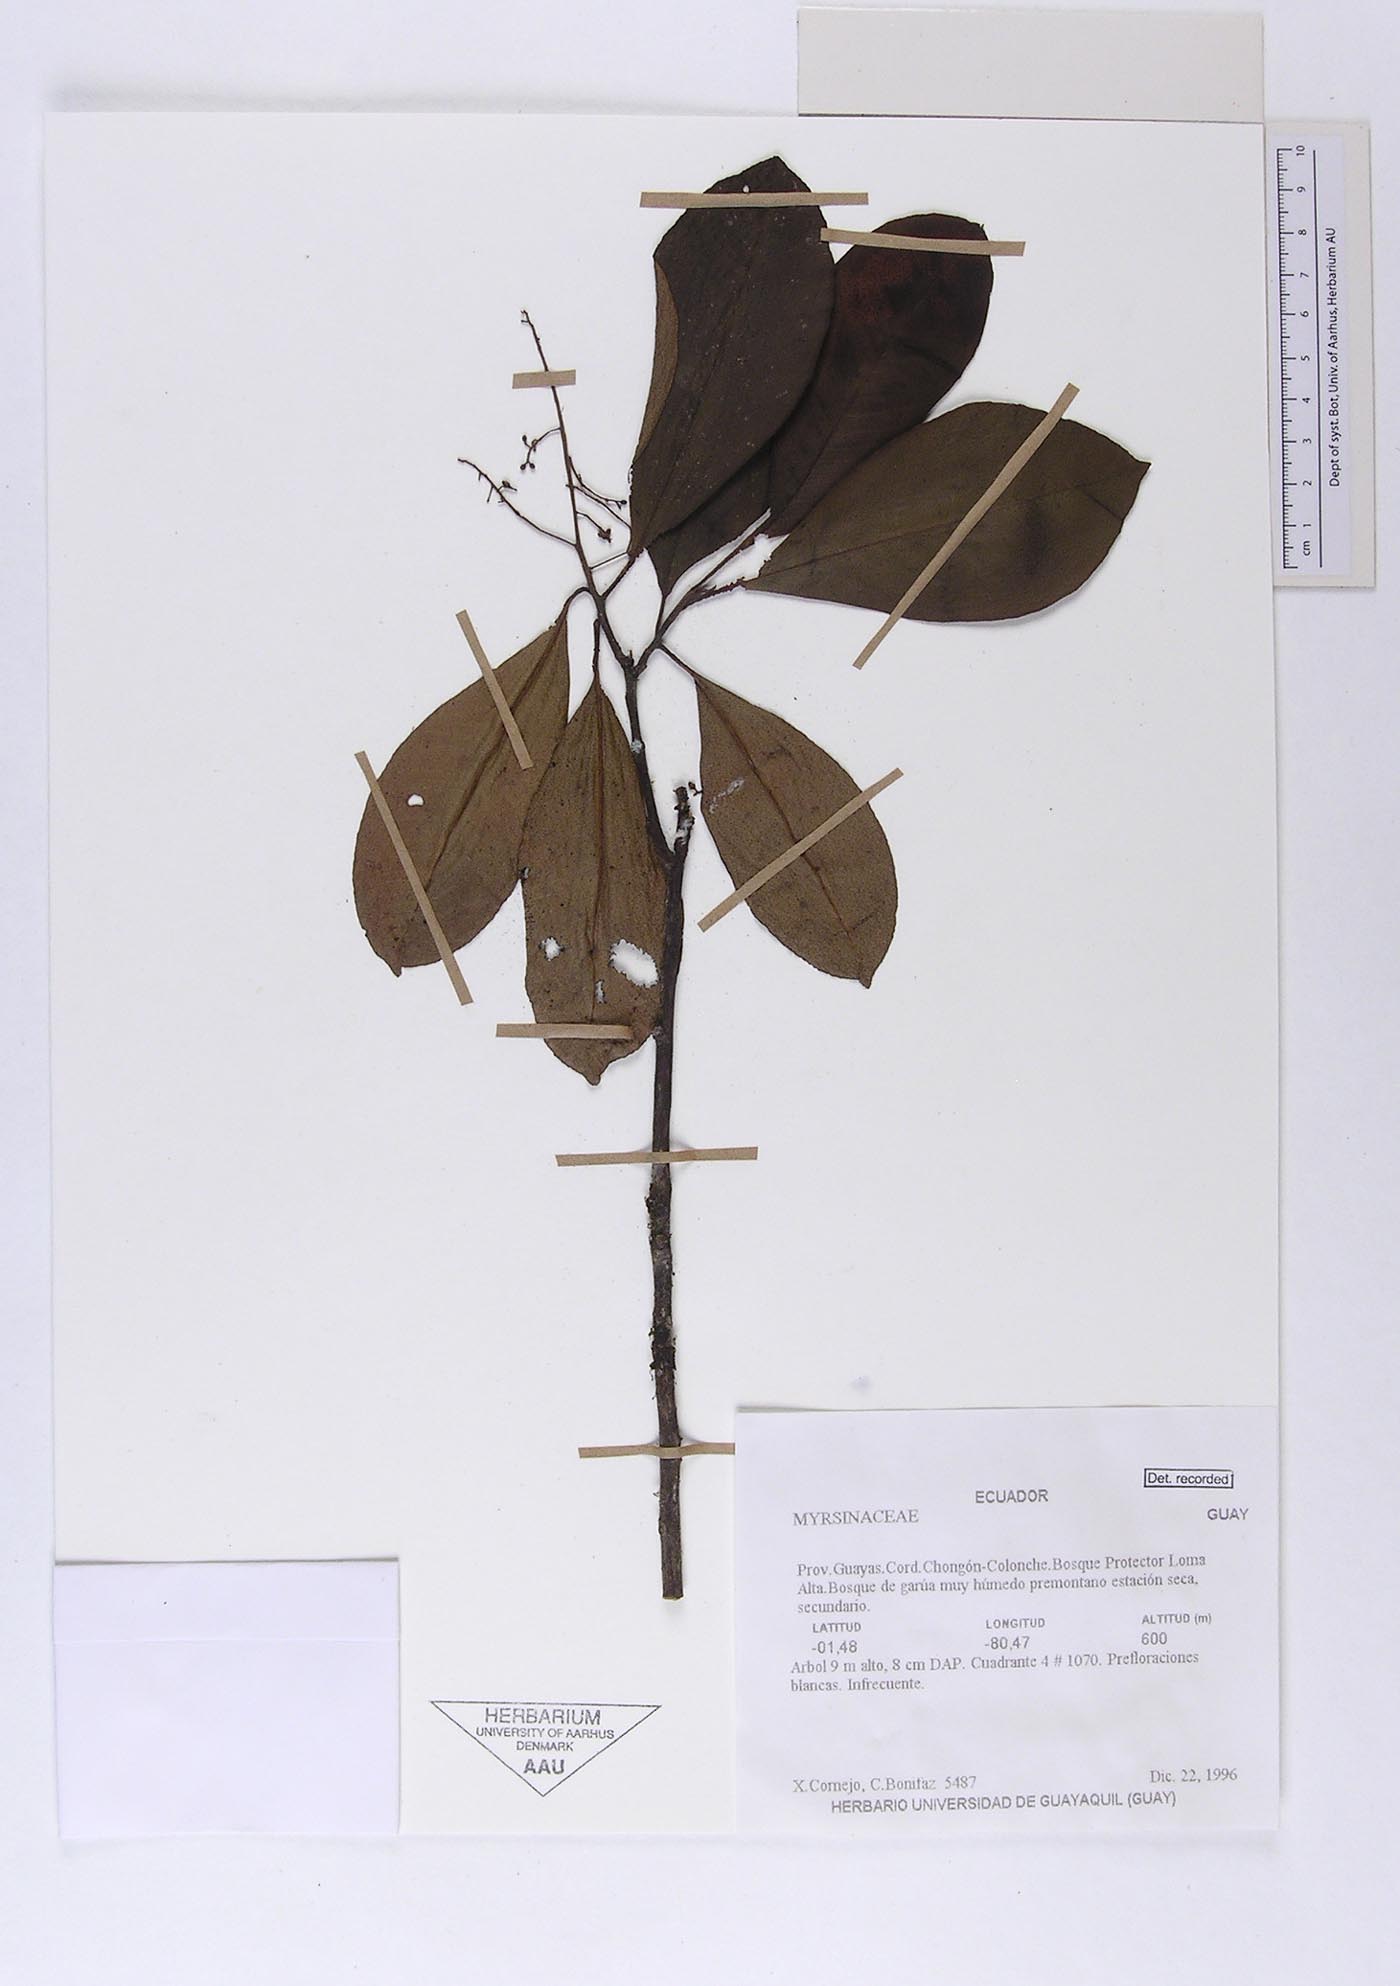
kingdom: Plantae
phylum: Tracheophyta
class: Magnoliopsida
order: Ericales
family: Primulaceae
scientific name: Primulaceae
